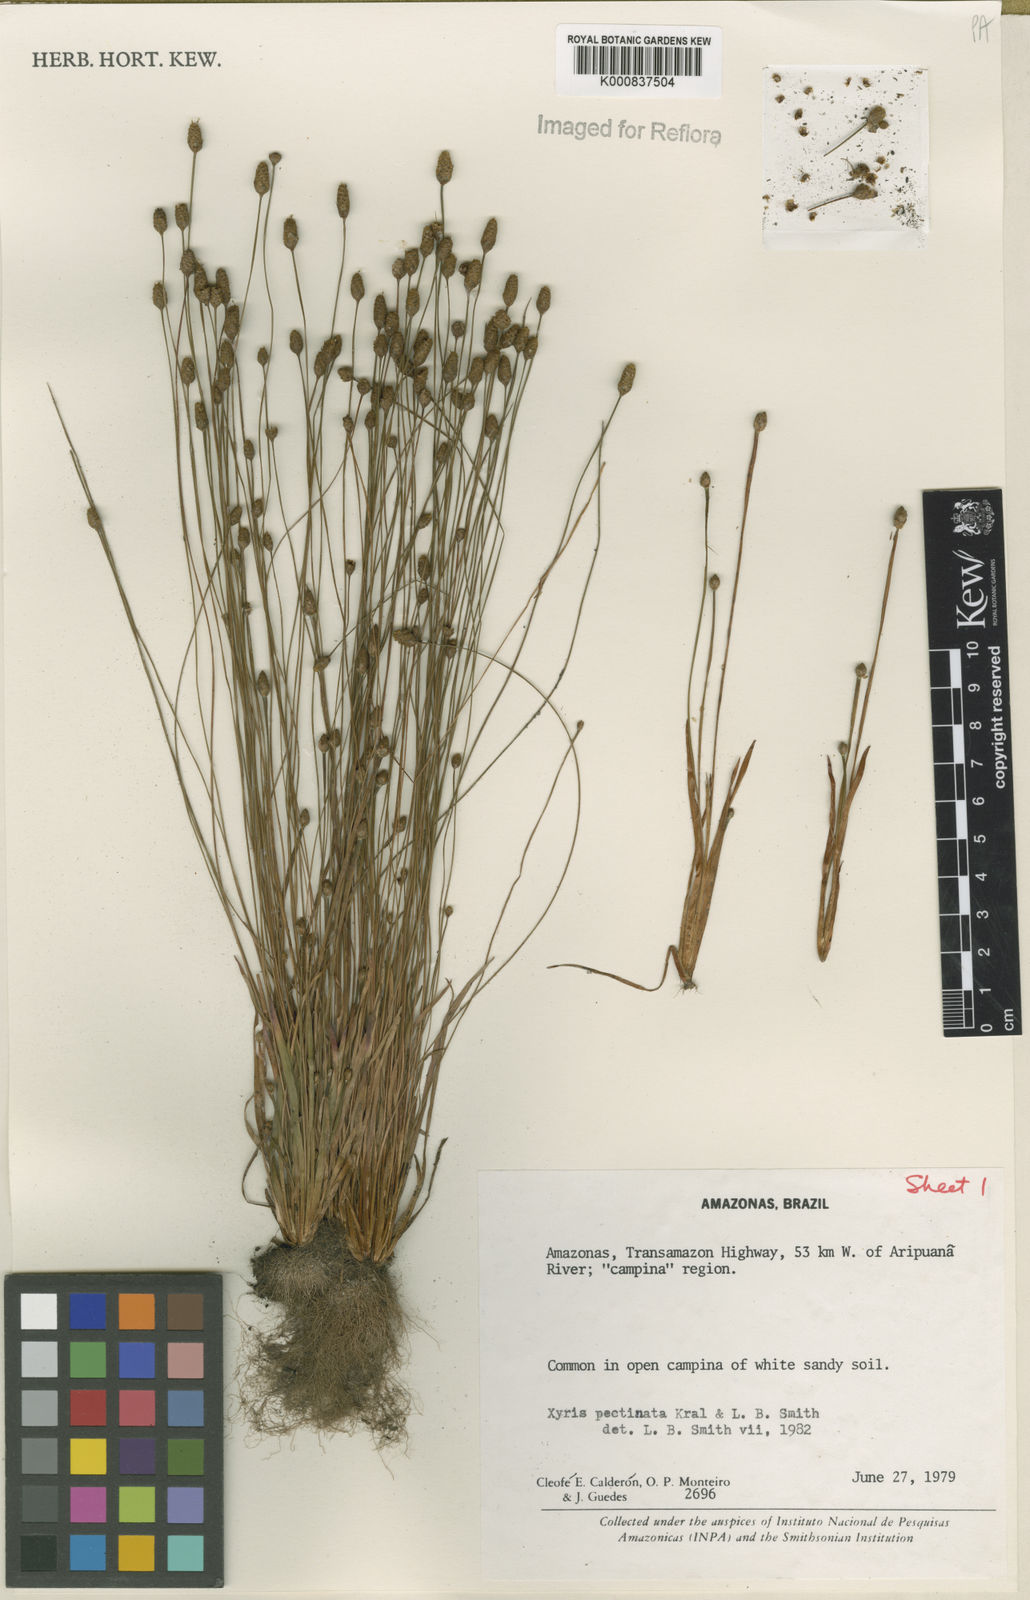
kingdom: Plantae
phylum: Tracheophyta
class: Liliopsida
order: Poales
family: Xyridaceae
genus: Xyris
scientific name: Xyris pectinata
